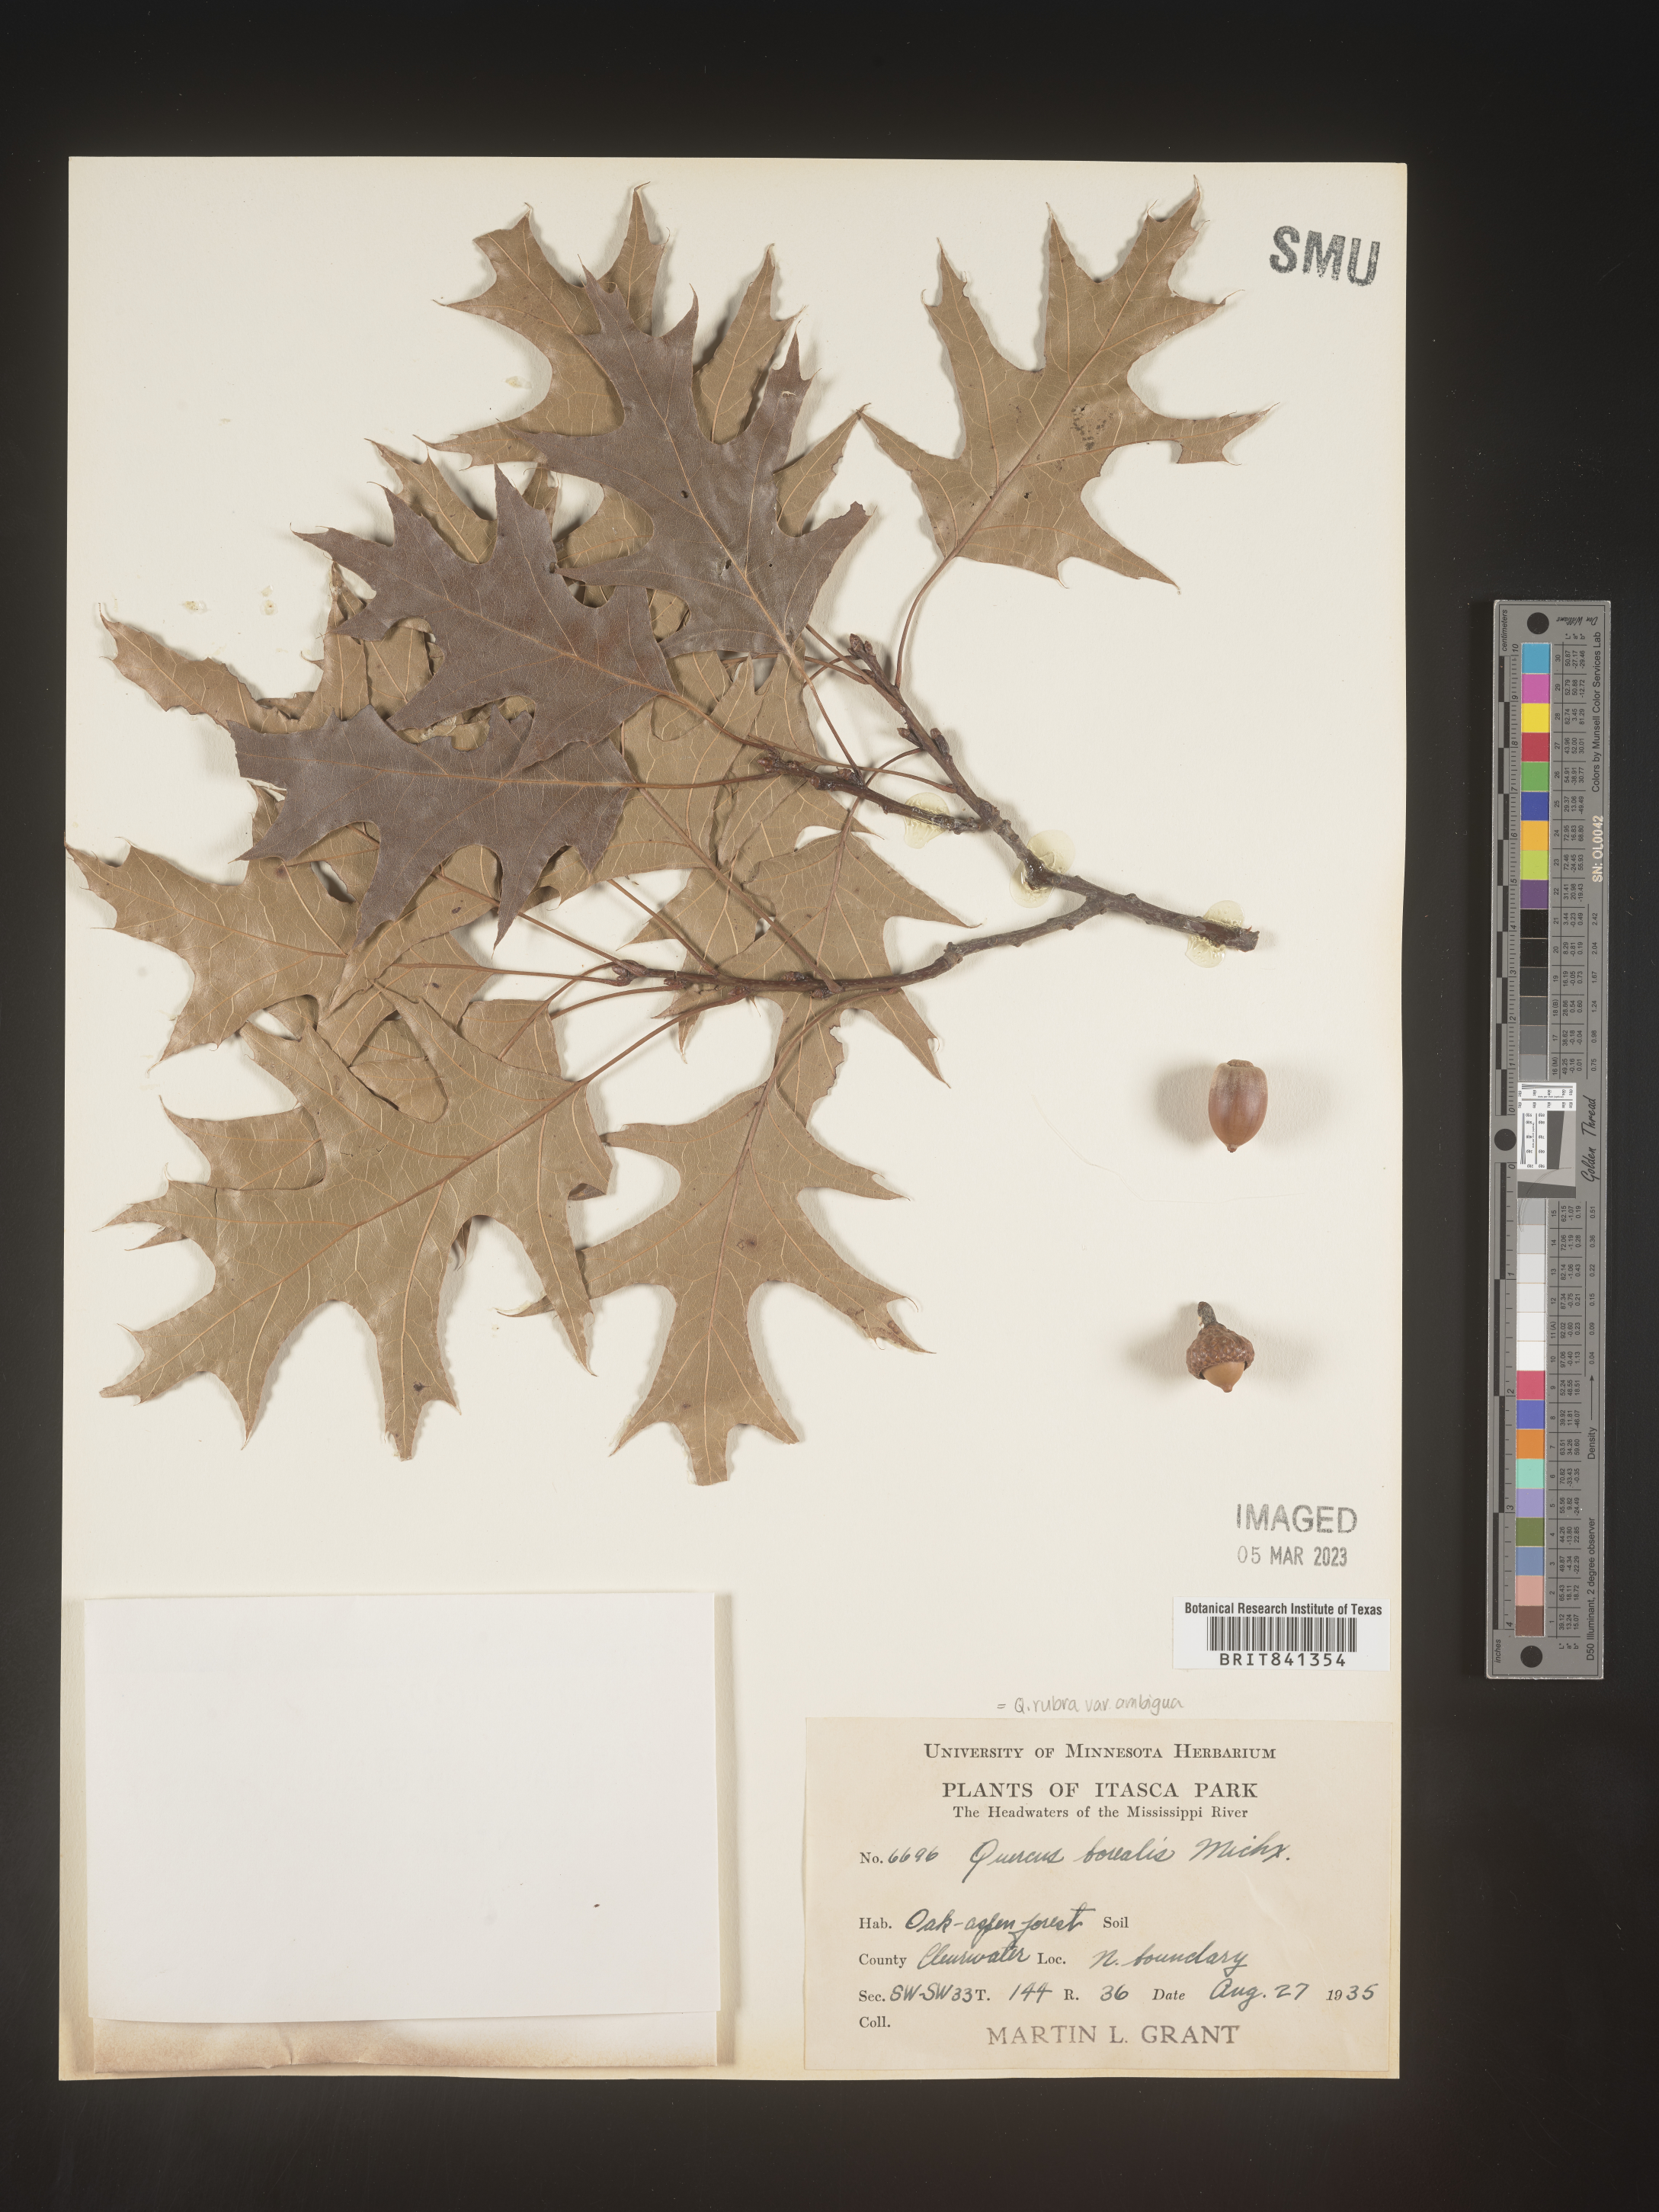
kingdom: Plantae
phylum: Tracheophyta
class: Magnoliopsida
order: Fagales
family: Fagaceae
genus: Quercus
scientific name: Quercus rubra
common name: Red oak
